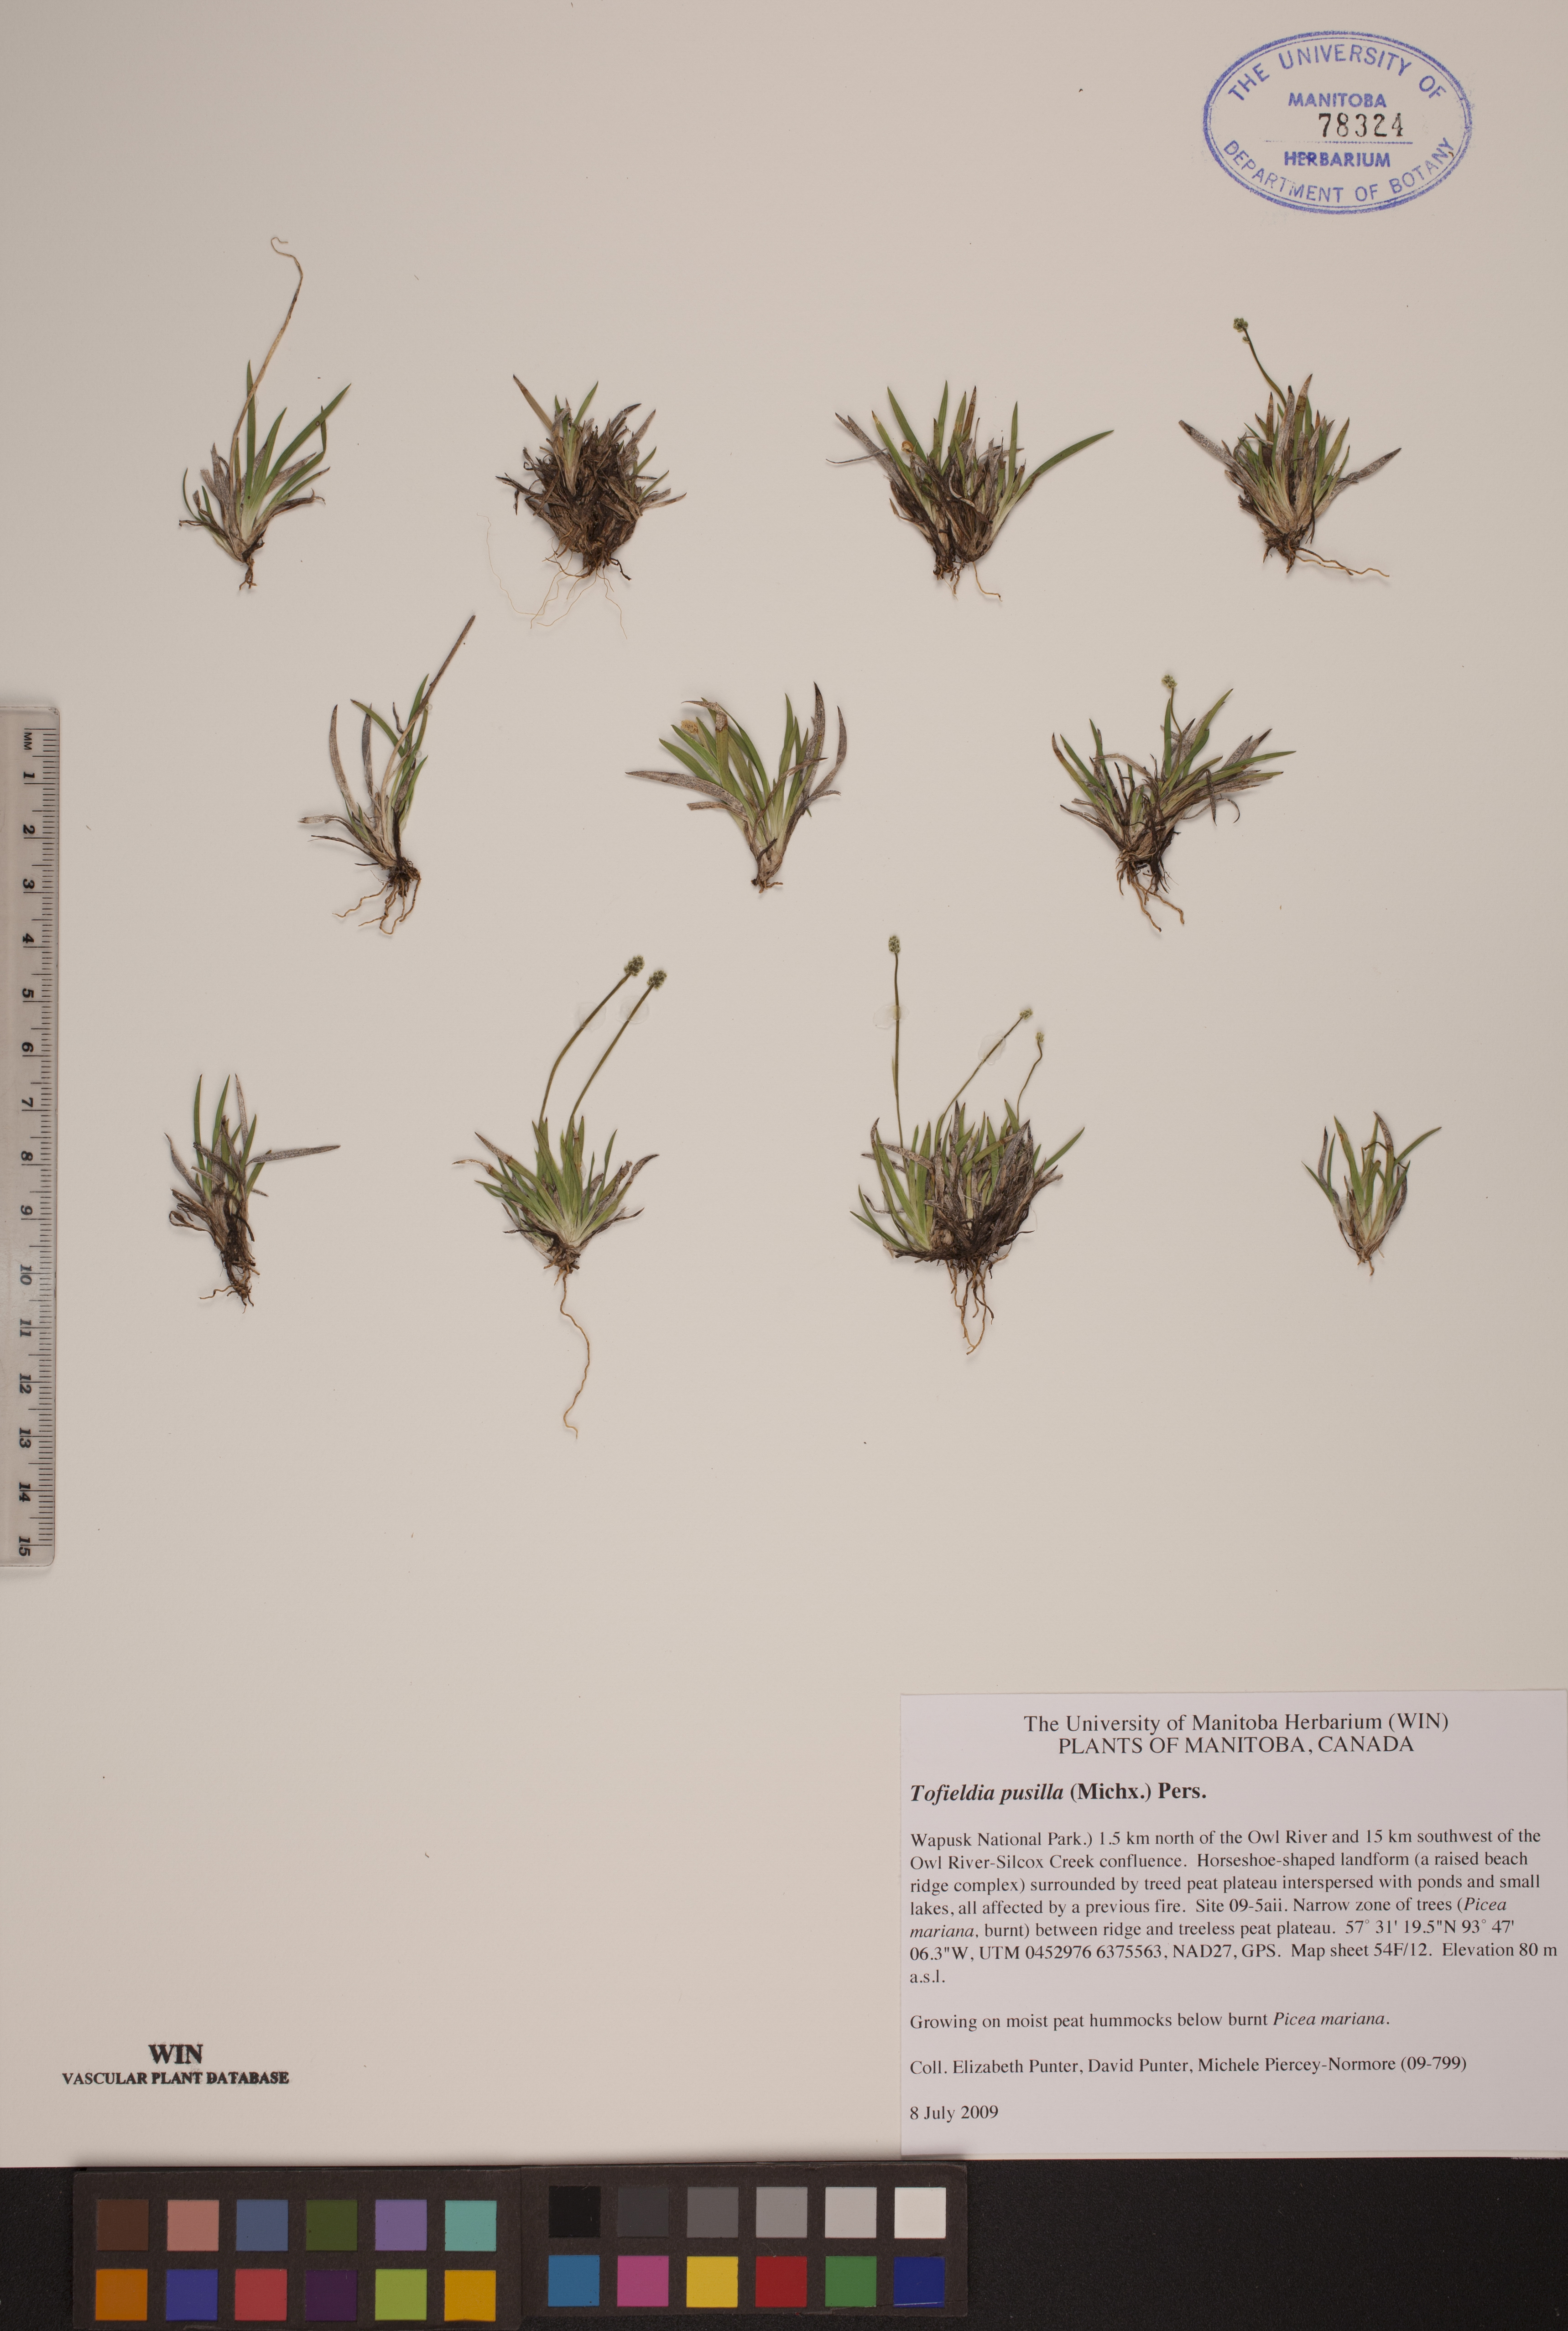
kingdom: Plantae
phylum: Tracheophyta
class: Liliopsida
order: Alismatales
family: Tofieldiaceae
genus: Tofieldia
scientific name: Tofieldia pusilla
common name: Scottish false asphodel
